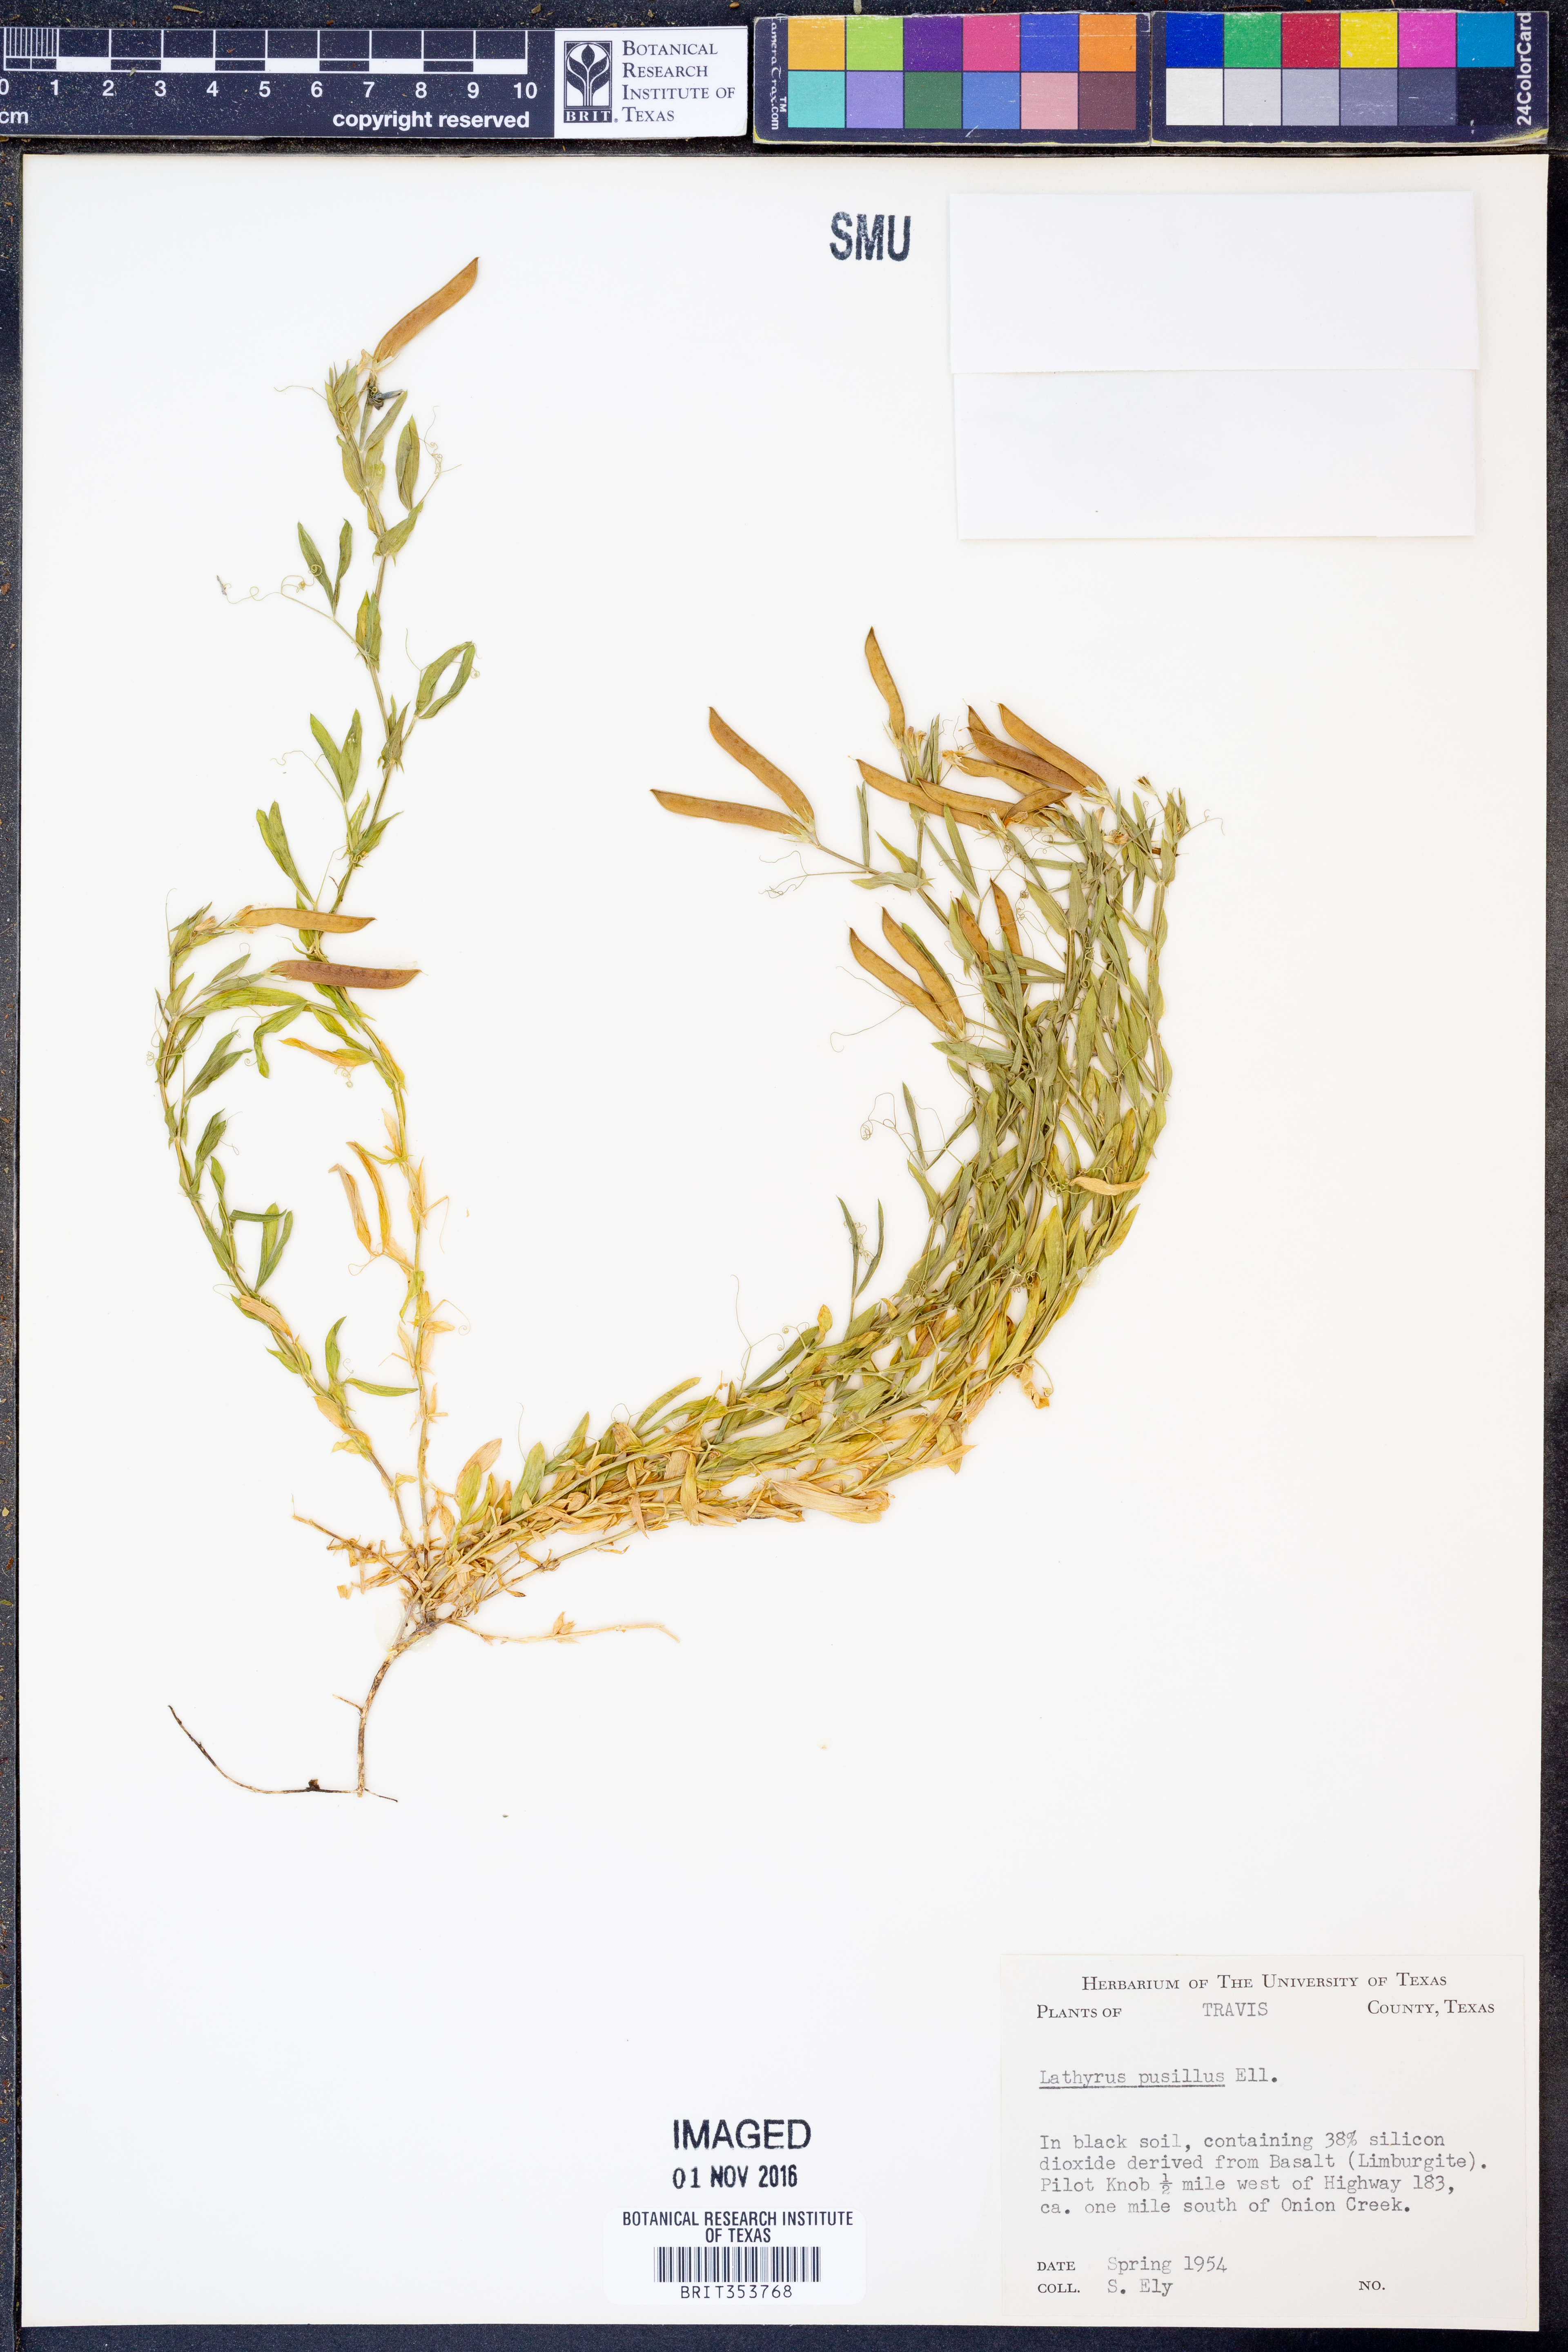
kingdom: Plantae
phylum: Tracheophyta
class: Magnoliopsida
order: Fabales
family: Fabaceae
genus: Lathyrus
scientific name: Lathyrus pusillus
